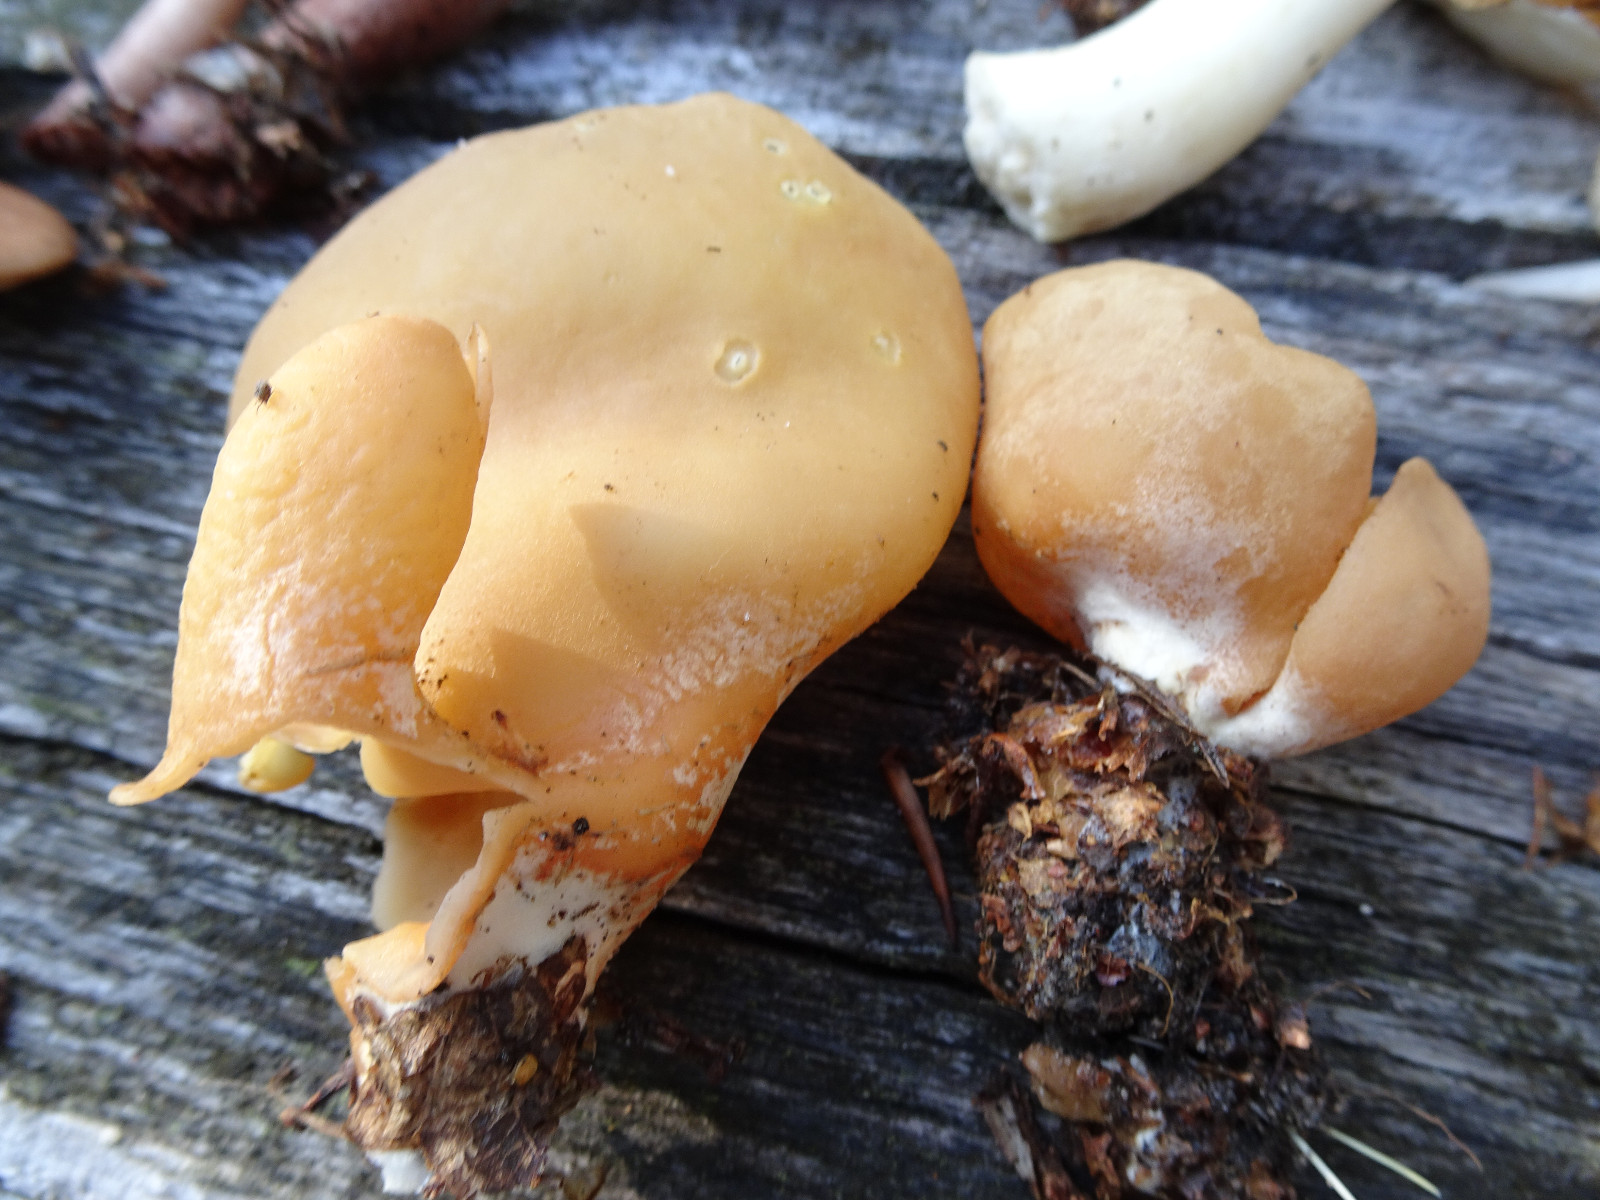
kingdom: Fungi
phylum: Ascomycota
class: Pezizomycetes
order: Pezizales
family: Otideaceae
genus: Otidea
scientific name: Otidea
